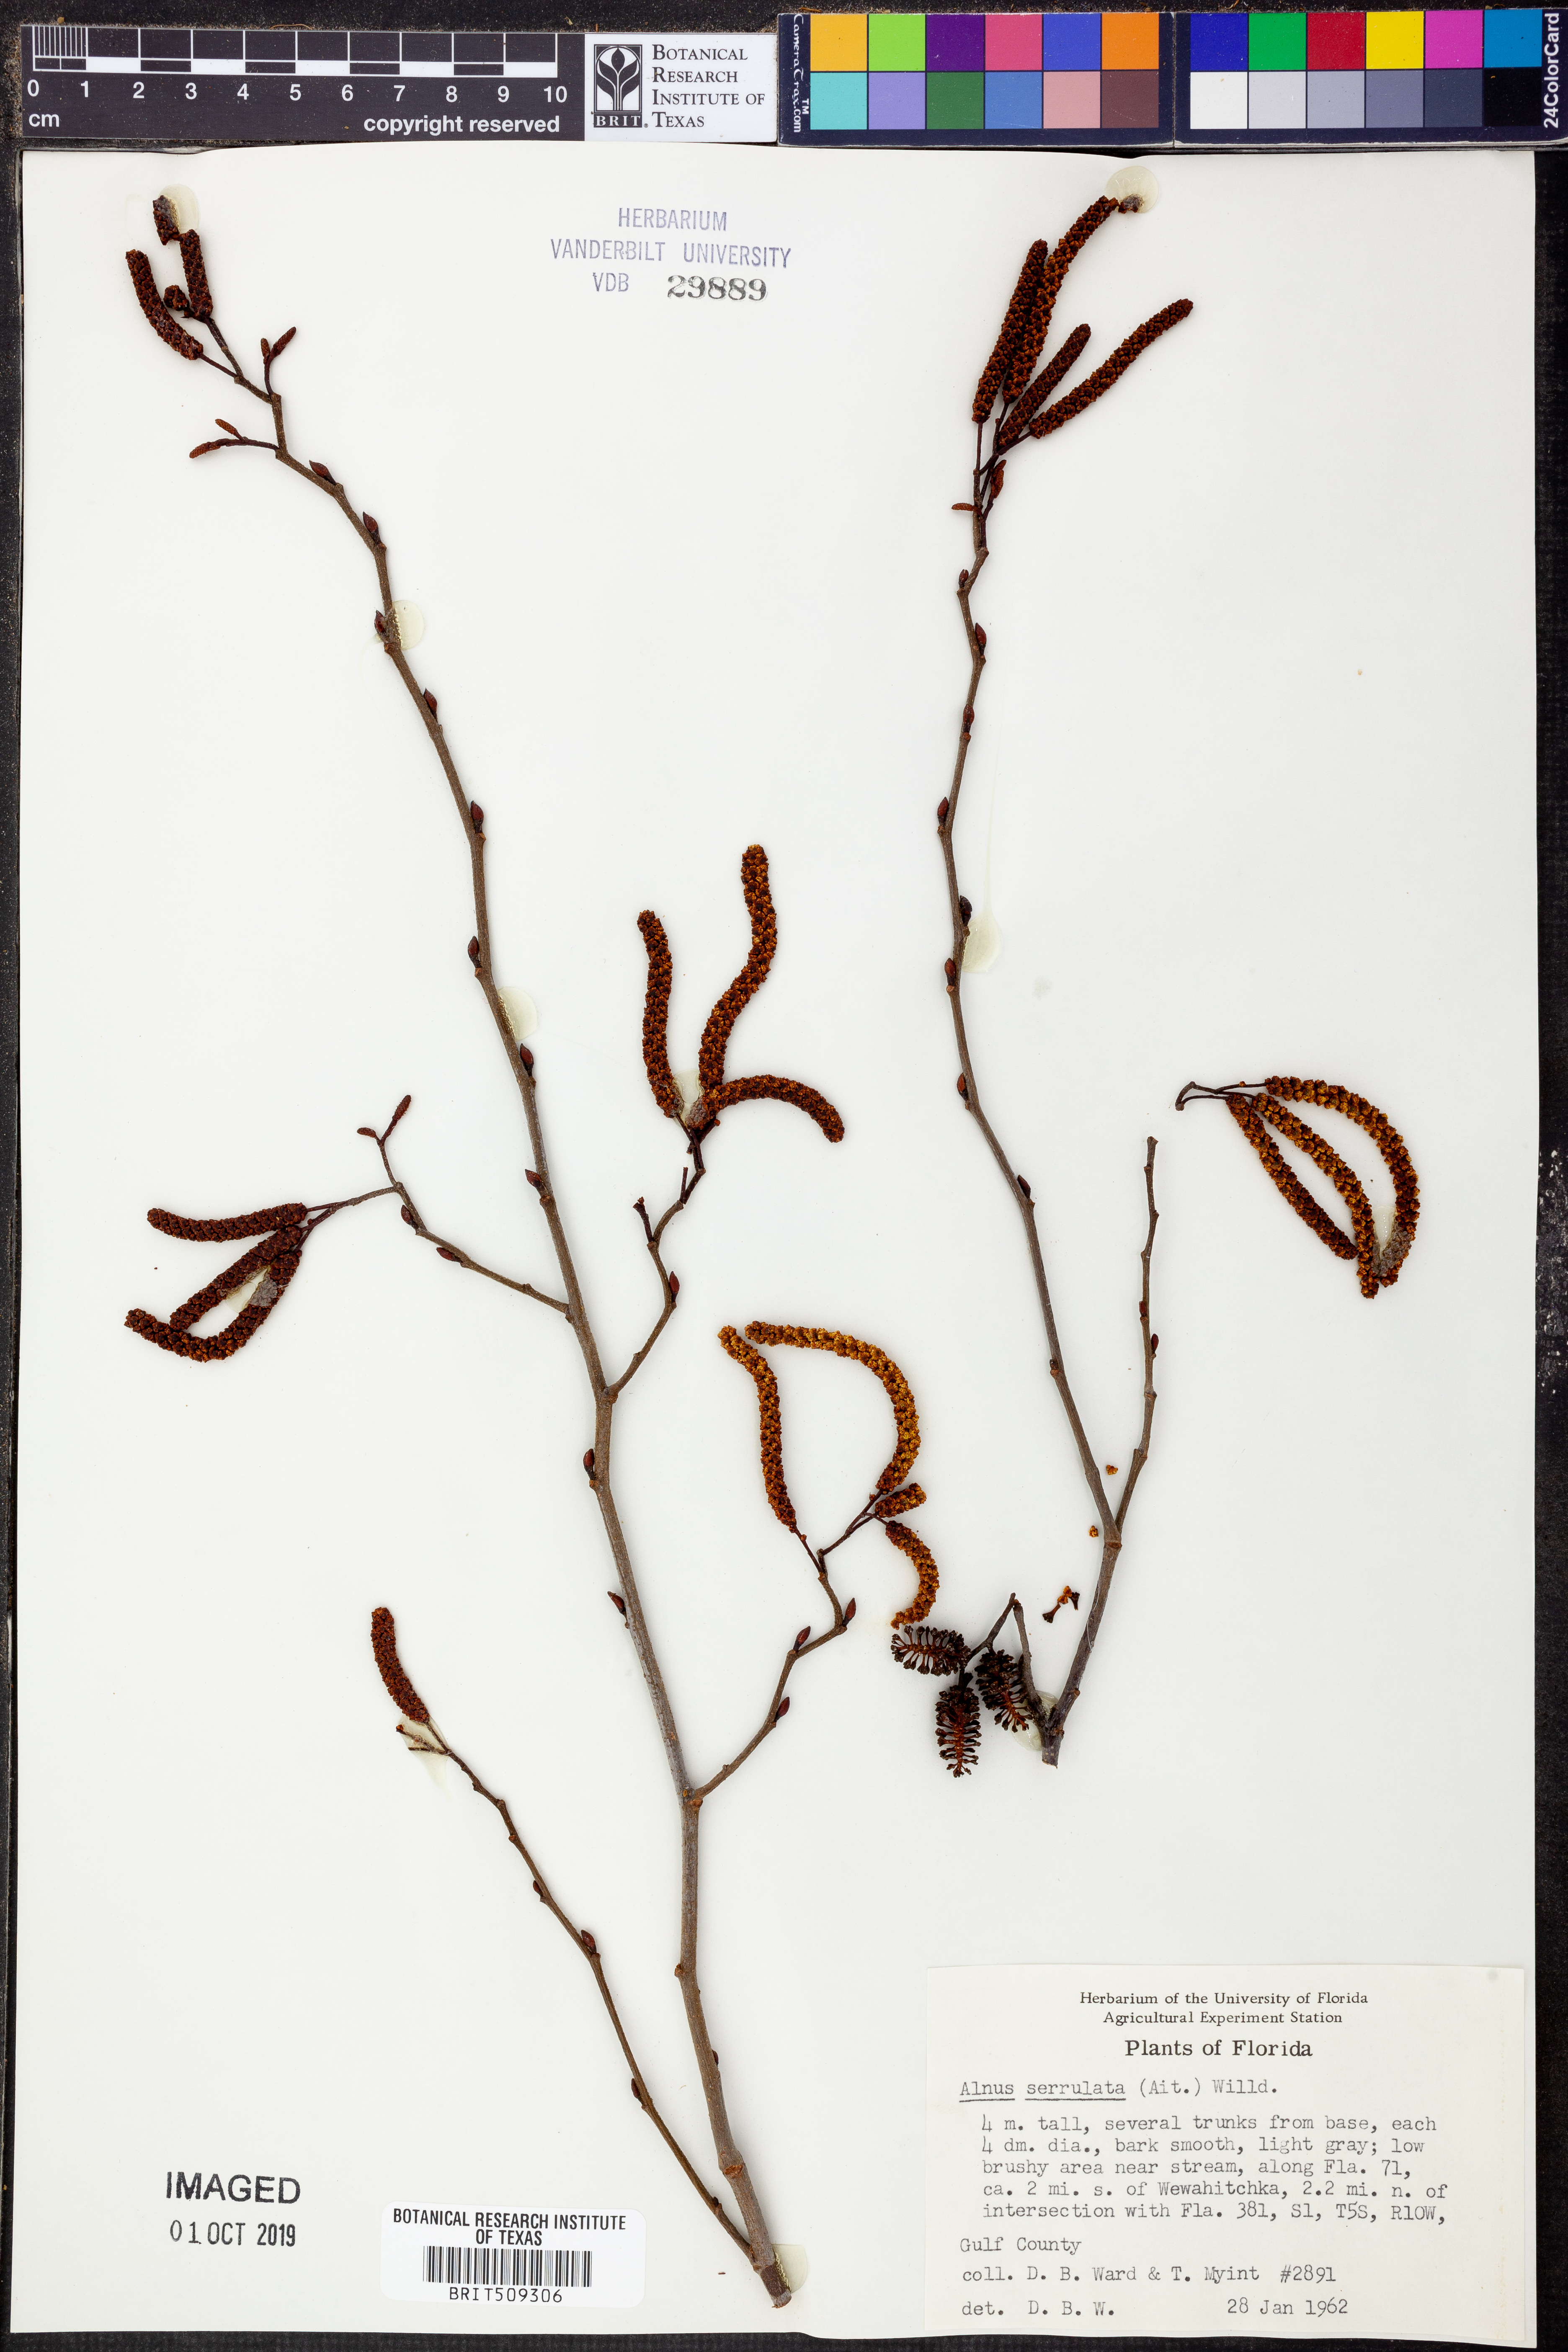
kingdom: Plantae
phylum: Tracheophyta
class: Magnoliopsida
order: Fagales
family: Betulaceae
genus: Alnus
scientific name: Alnus serrulata
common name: Hazel alder
